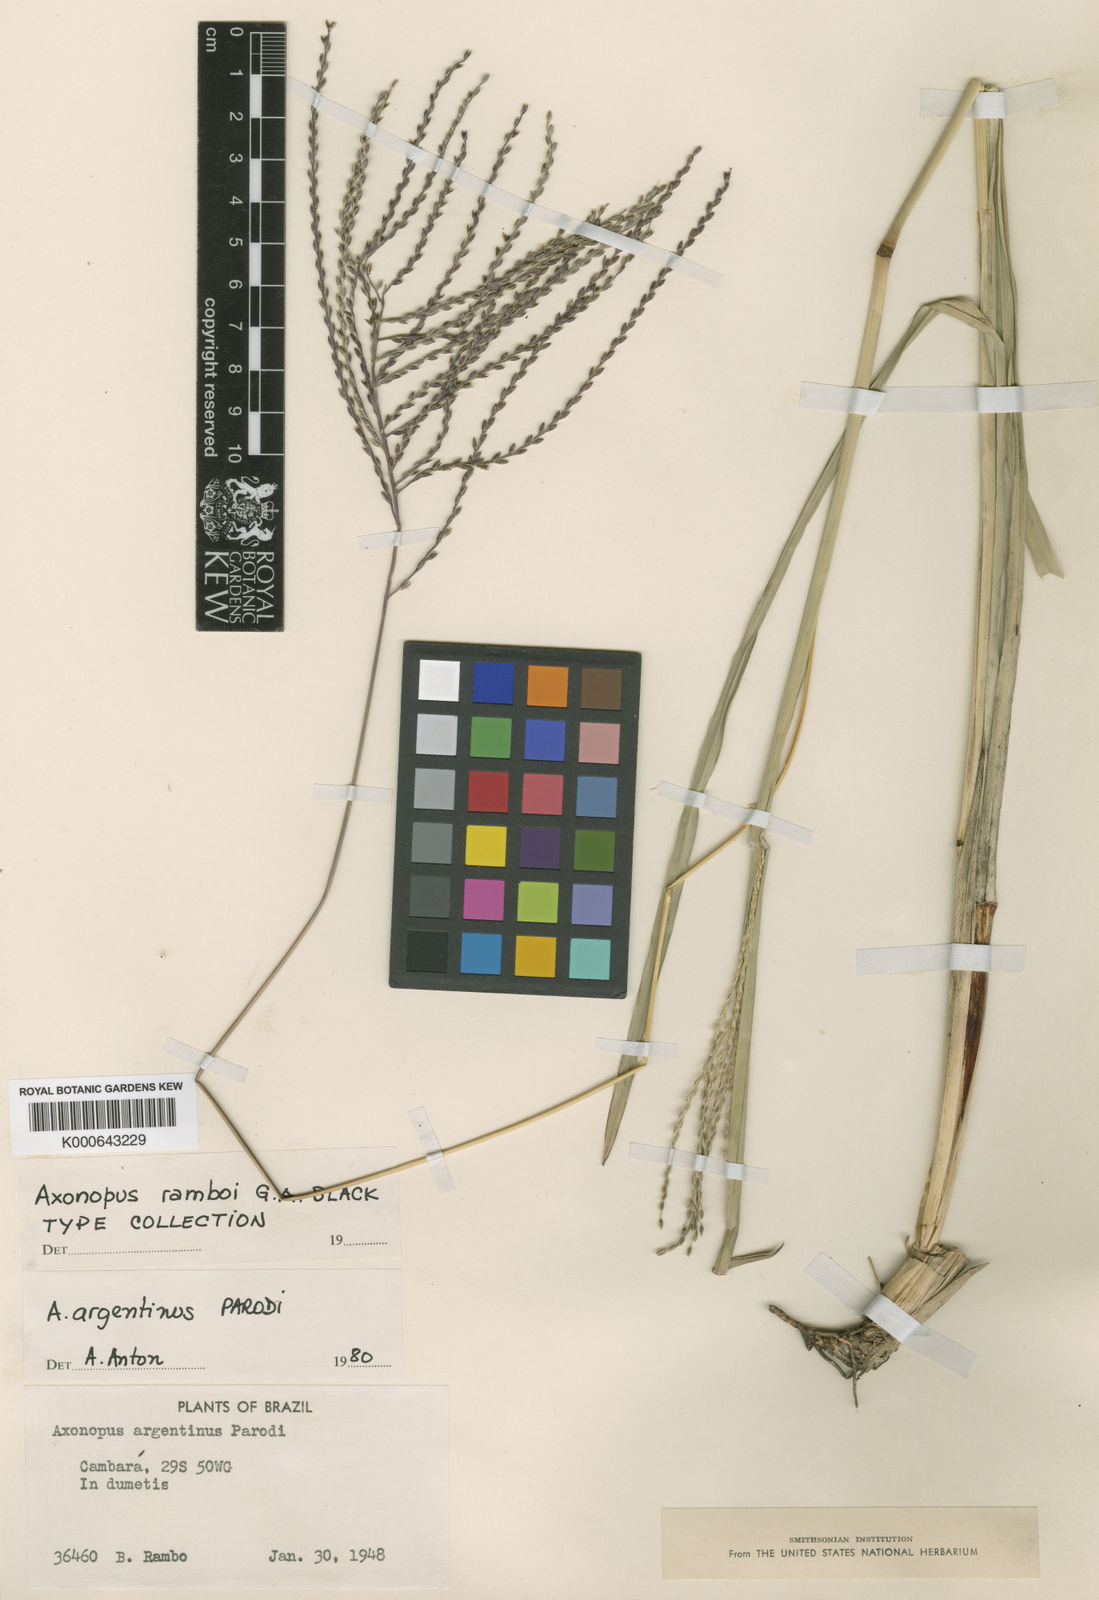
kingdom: Plantae
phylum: Tracheophyta
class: Liliopsida
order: Poales
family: Poaceae
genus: Axonopus
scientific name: Axonopus argentinus
